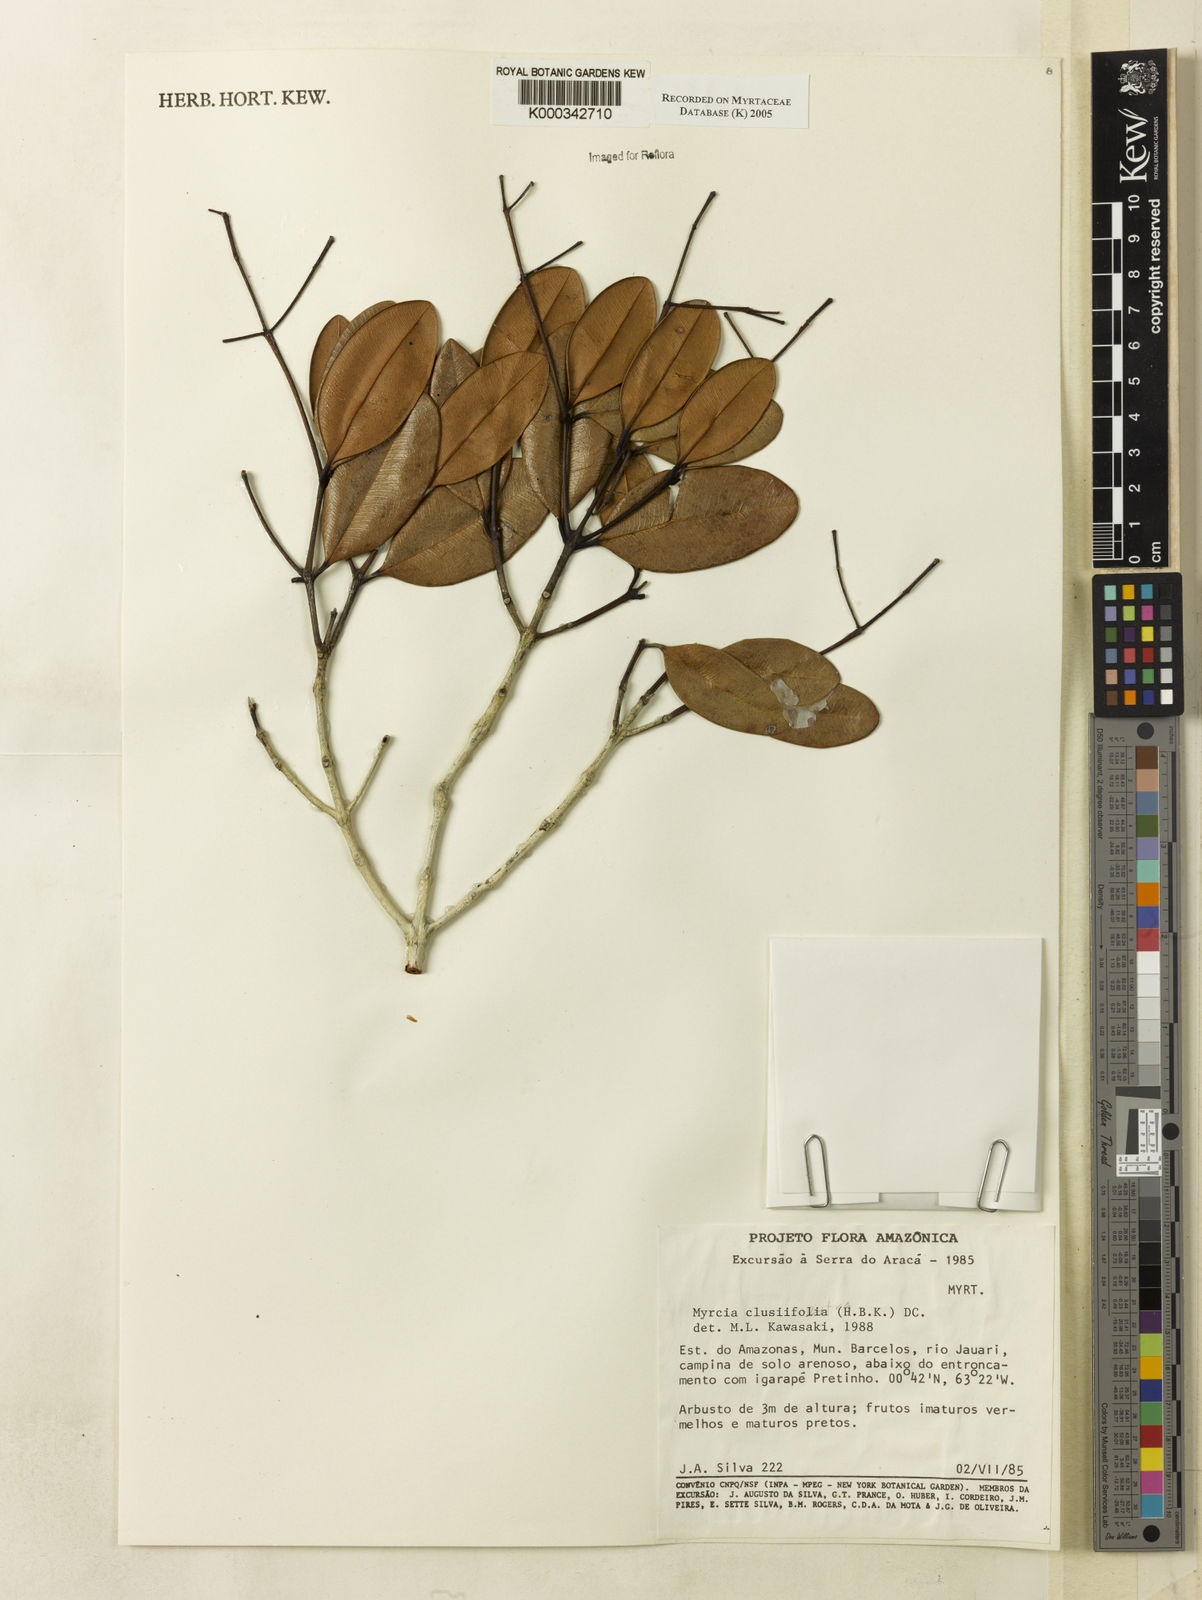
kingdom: Plantae
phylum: Tracheophyta
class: Magnoliopsida
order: Myrtales
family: Myrtaceae
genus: Myrcia
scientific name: Myrcia clusiifolia
